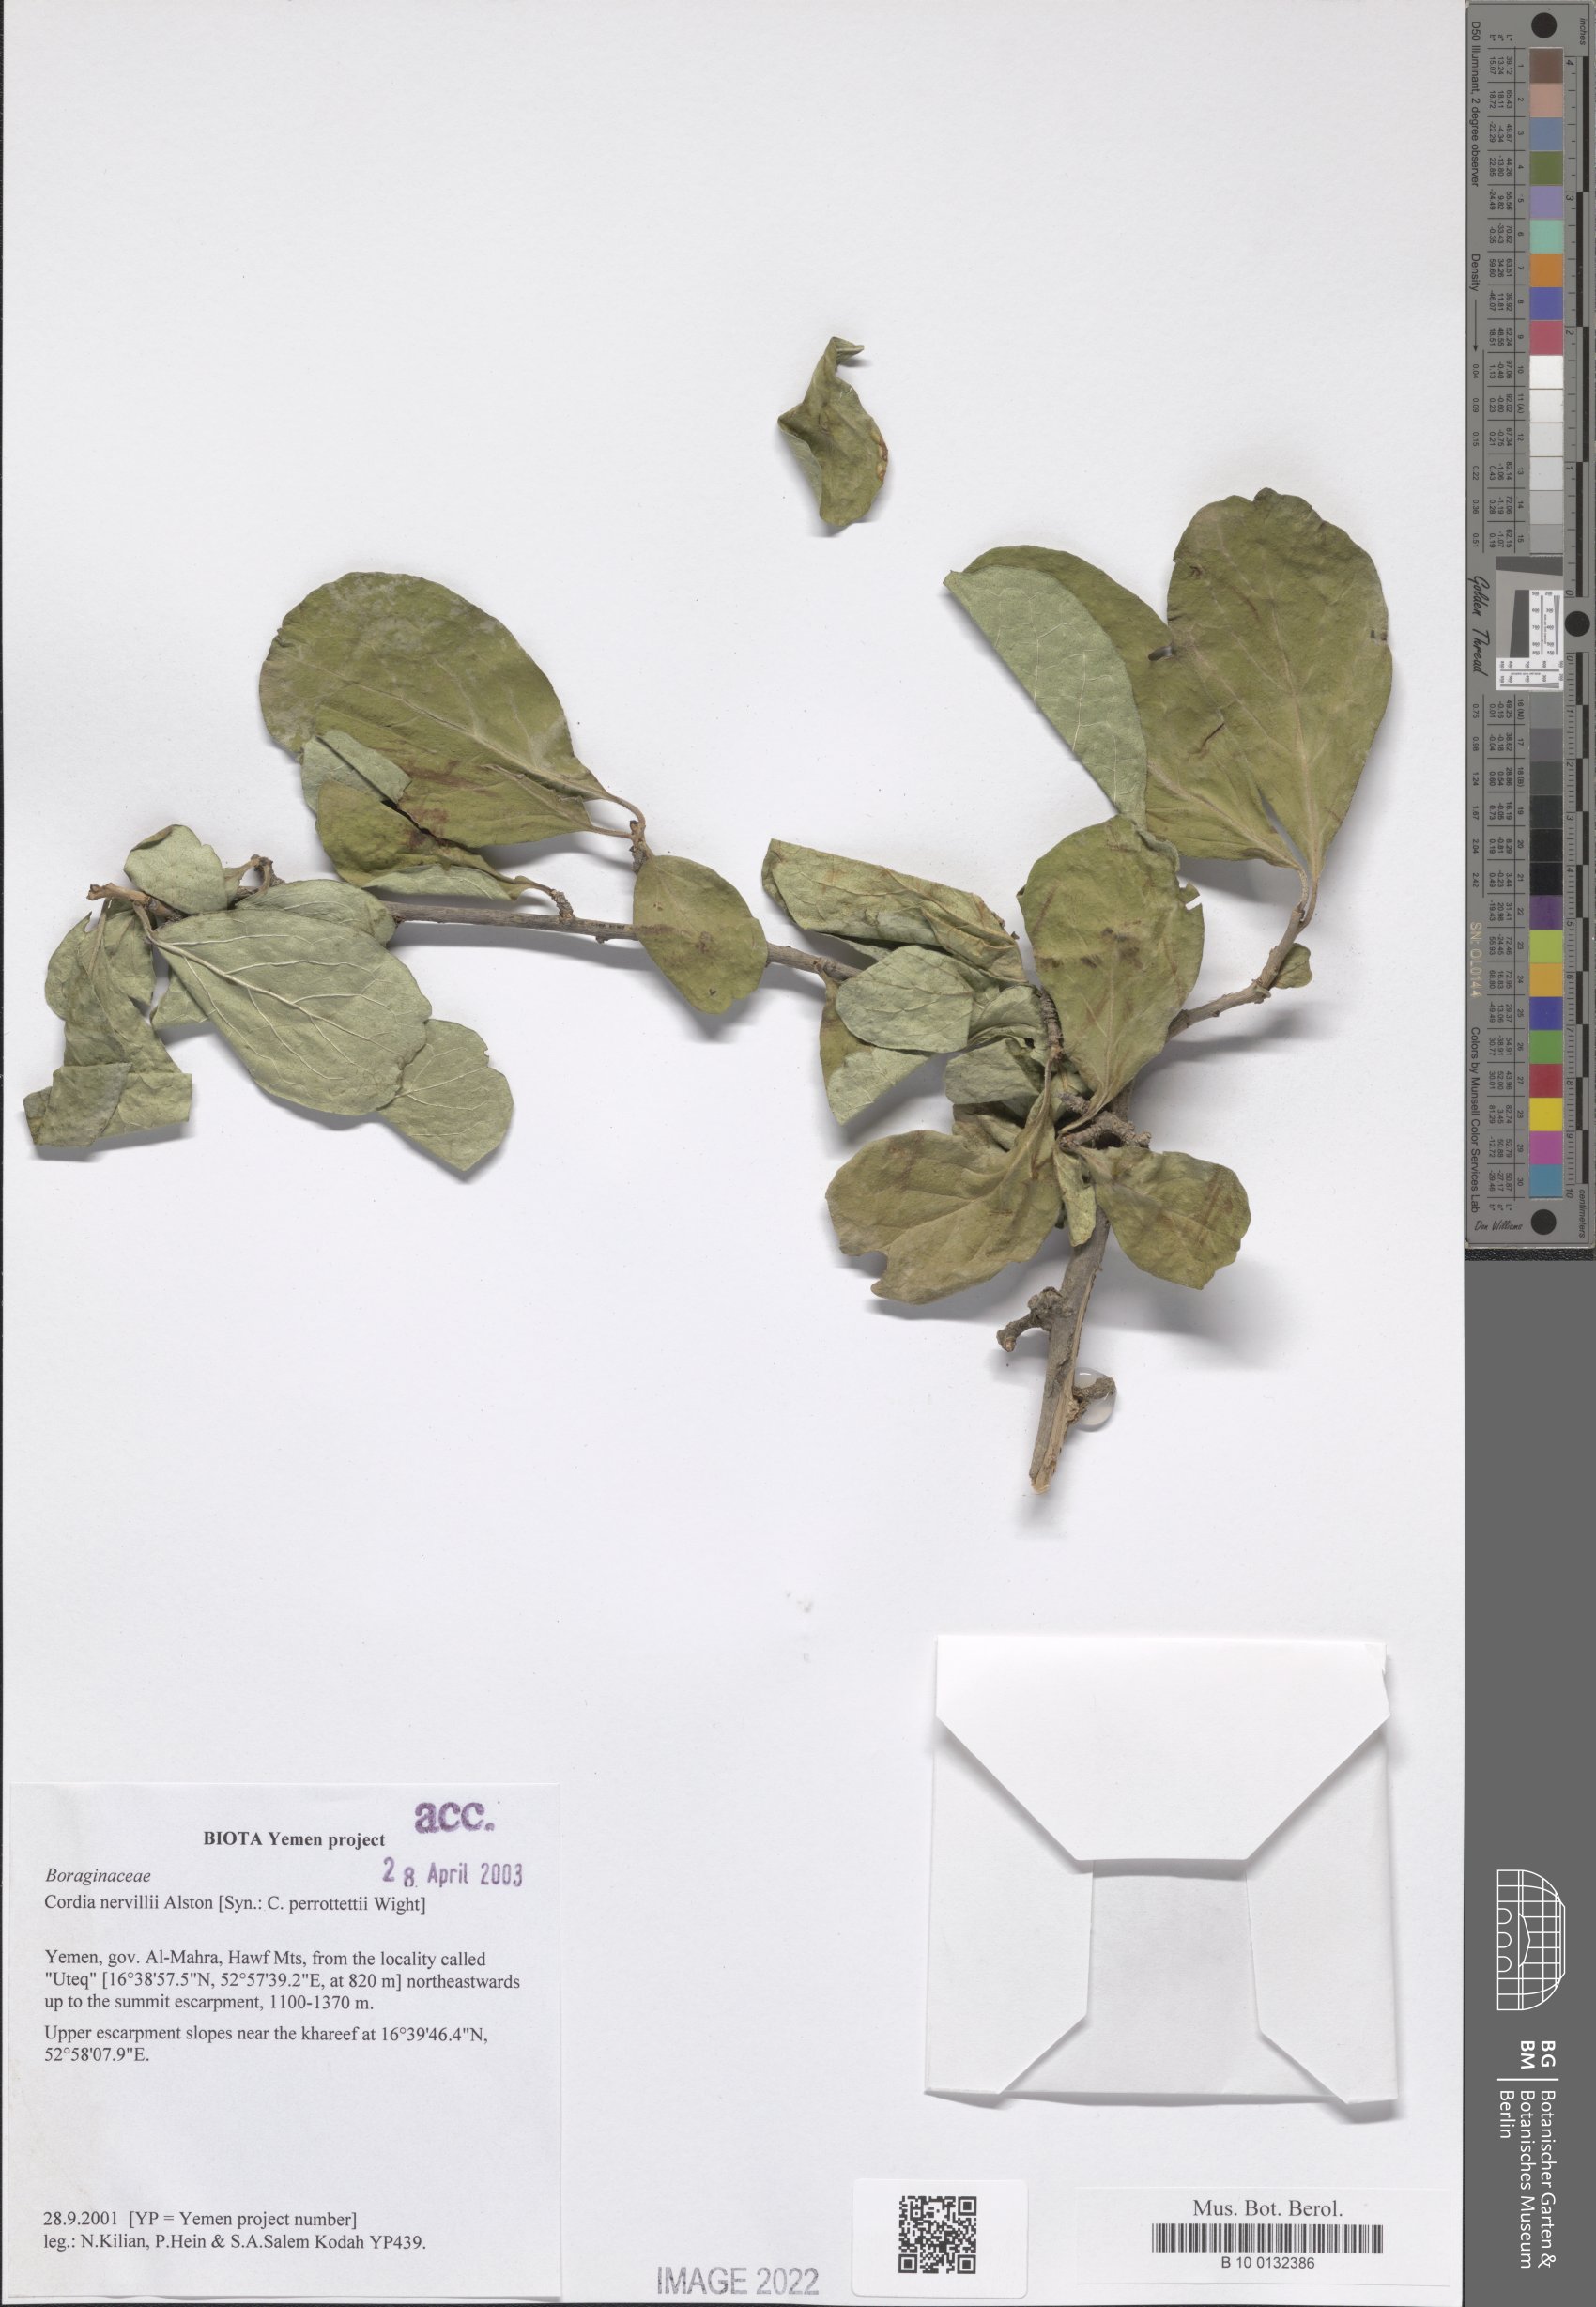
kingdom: Plantae
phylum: Tracheophyta
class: Magnoliopsida
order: Boraginales
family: Cordiaceae
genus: Cordia
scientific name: Cordia quercifolia
